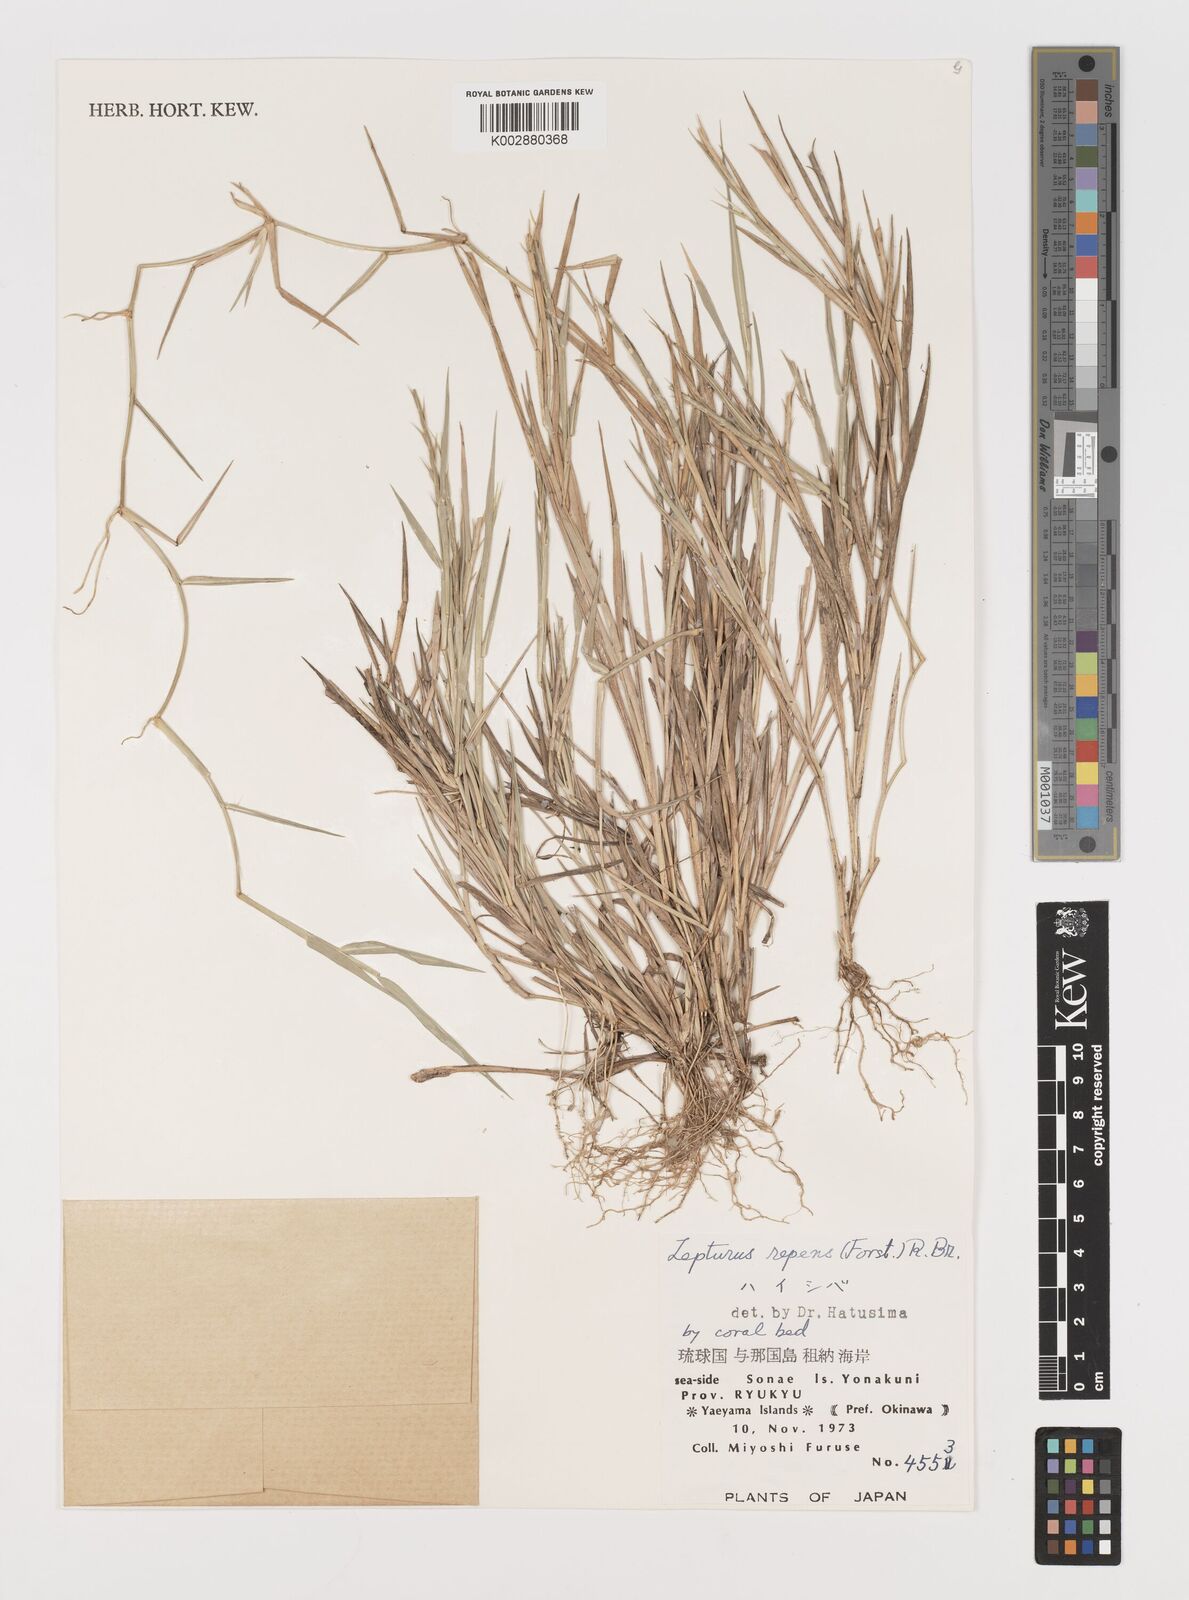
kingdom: Plantae
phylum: Tracheophyta
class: Liliopsida
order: Poales
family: Poaceae
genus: Lepturus
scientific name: Lepturus repens
